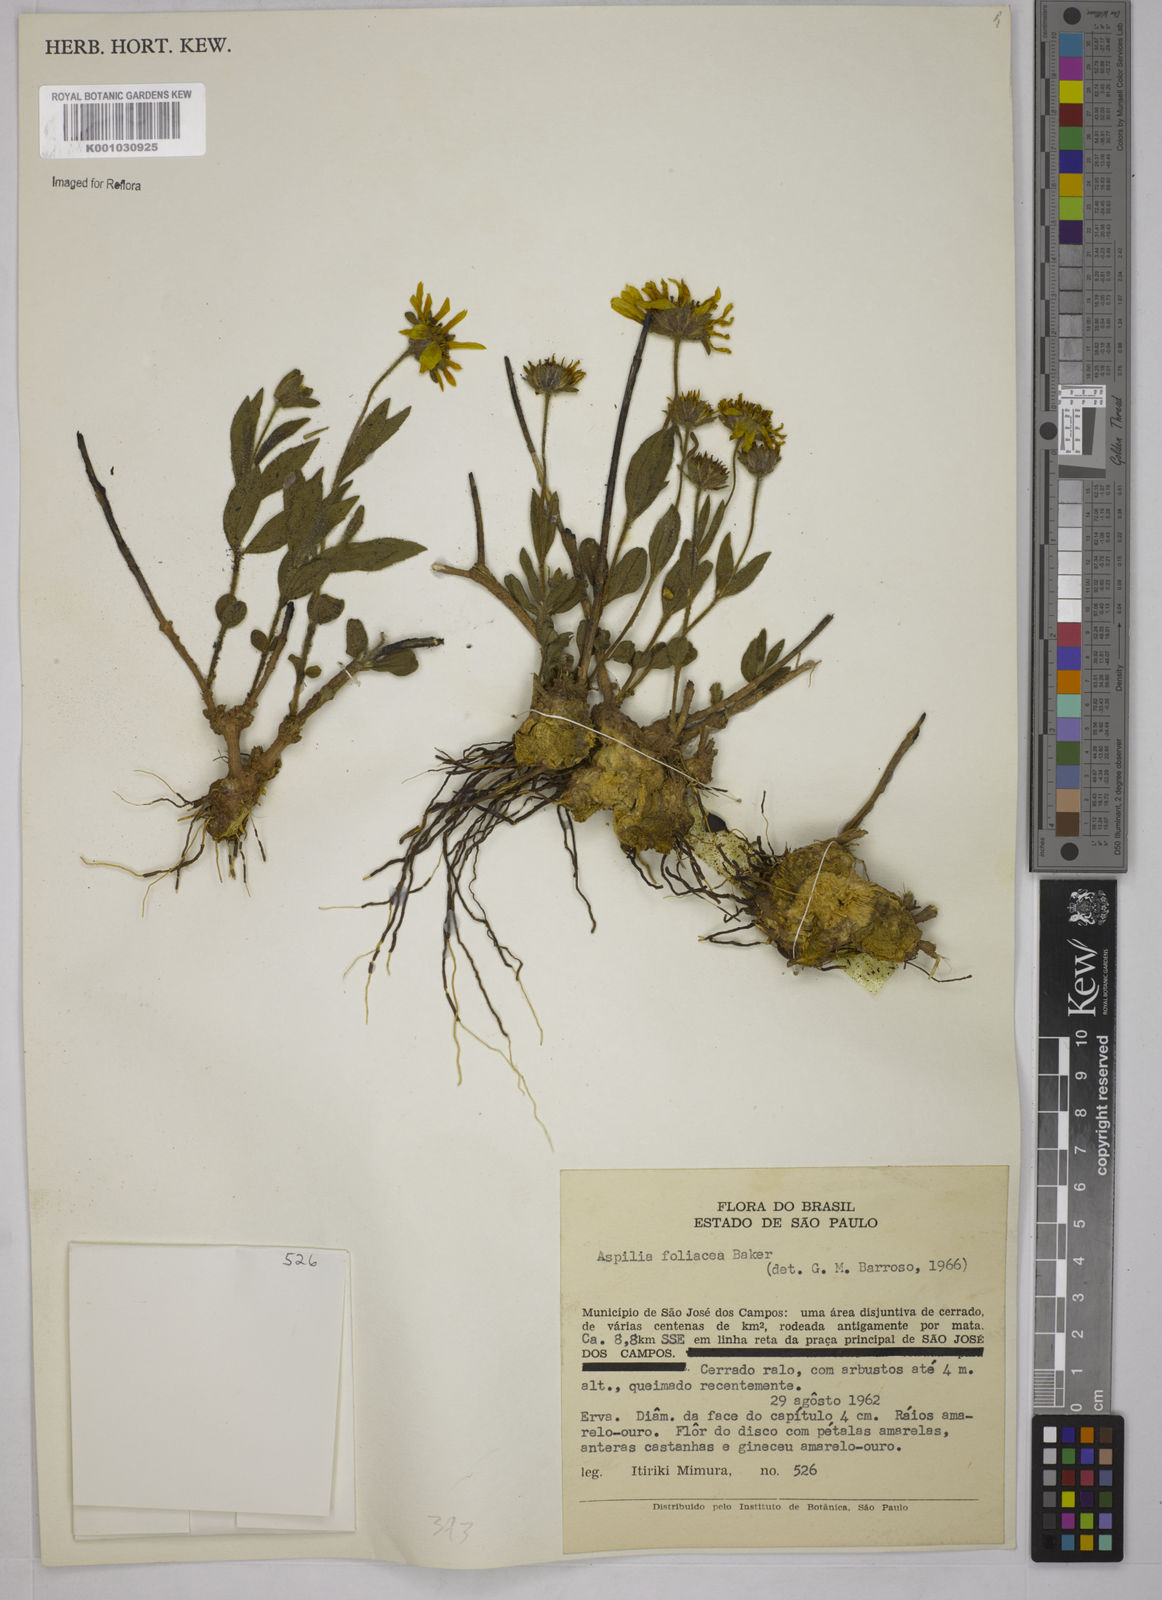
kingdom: Plantae
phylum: Tracheophyta
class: Magnoliopsida
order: Asterales
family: Asteraceae
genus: Wedelia
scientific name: Wedelia foliacea
